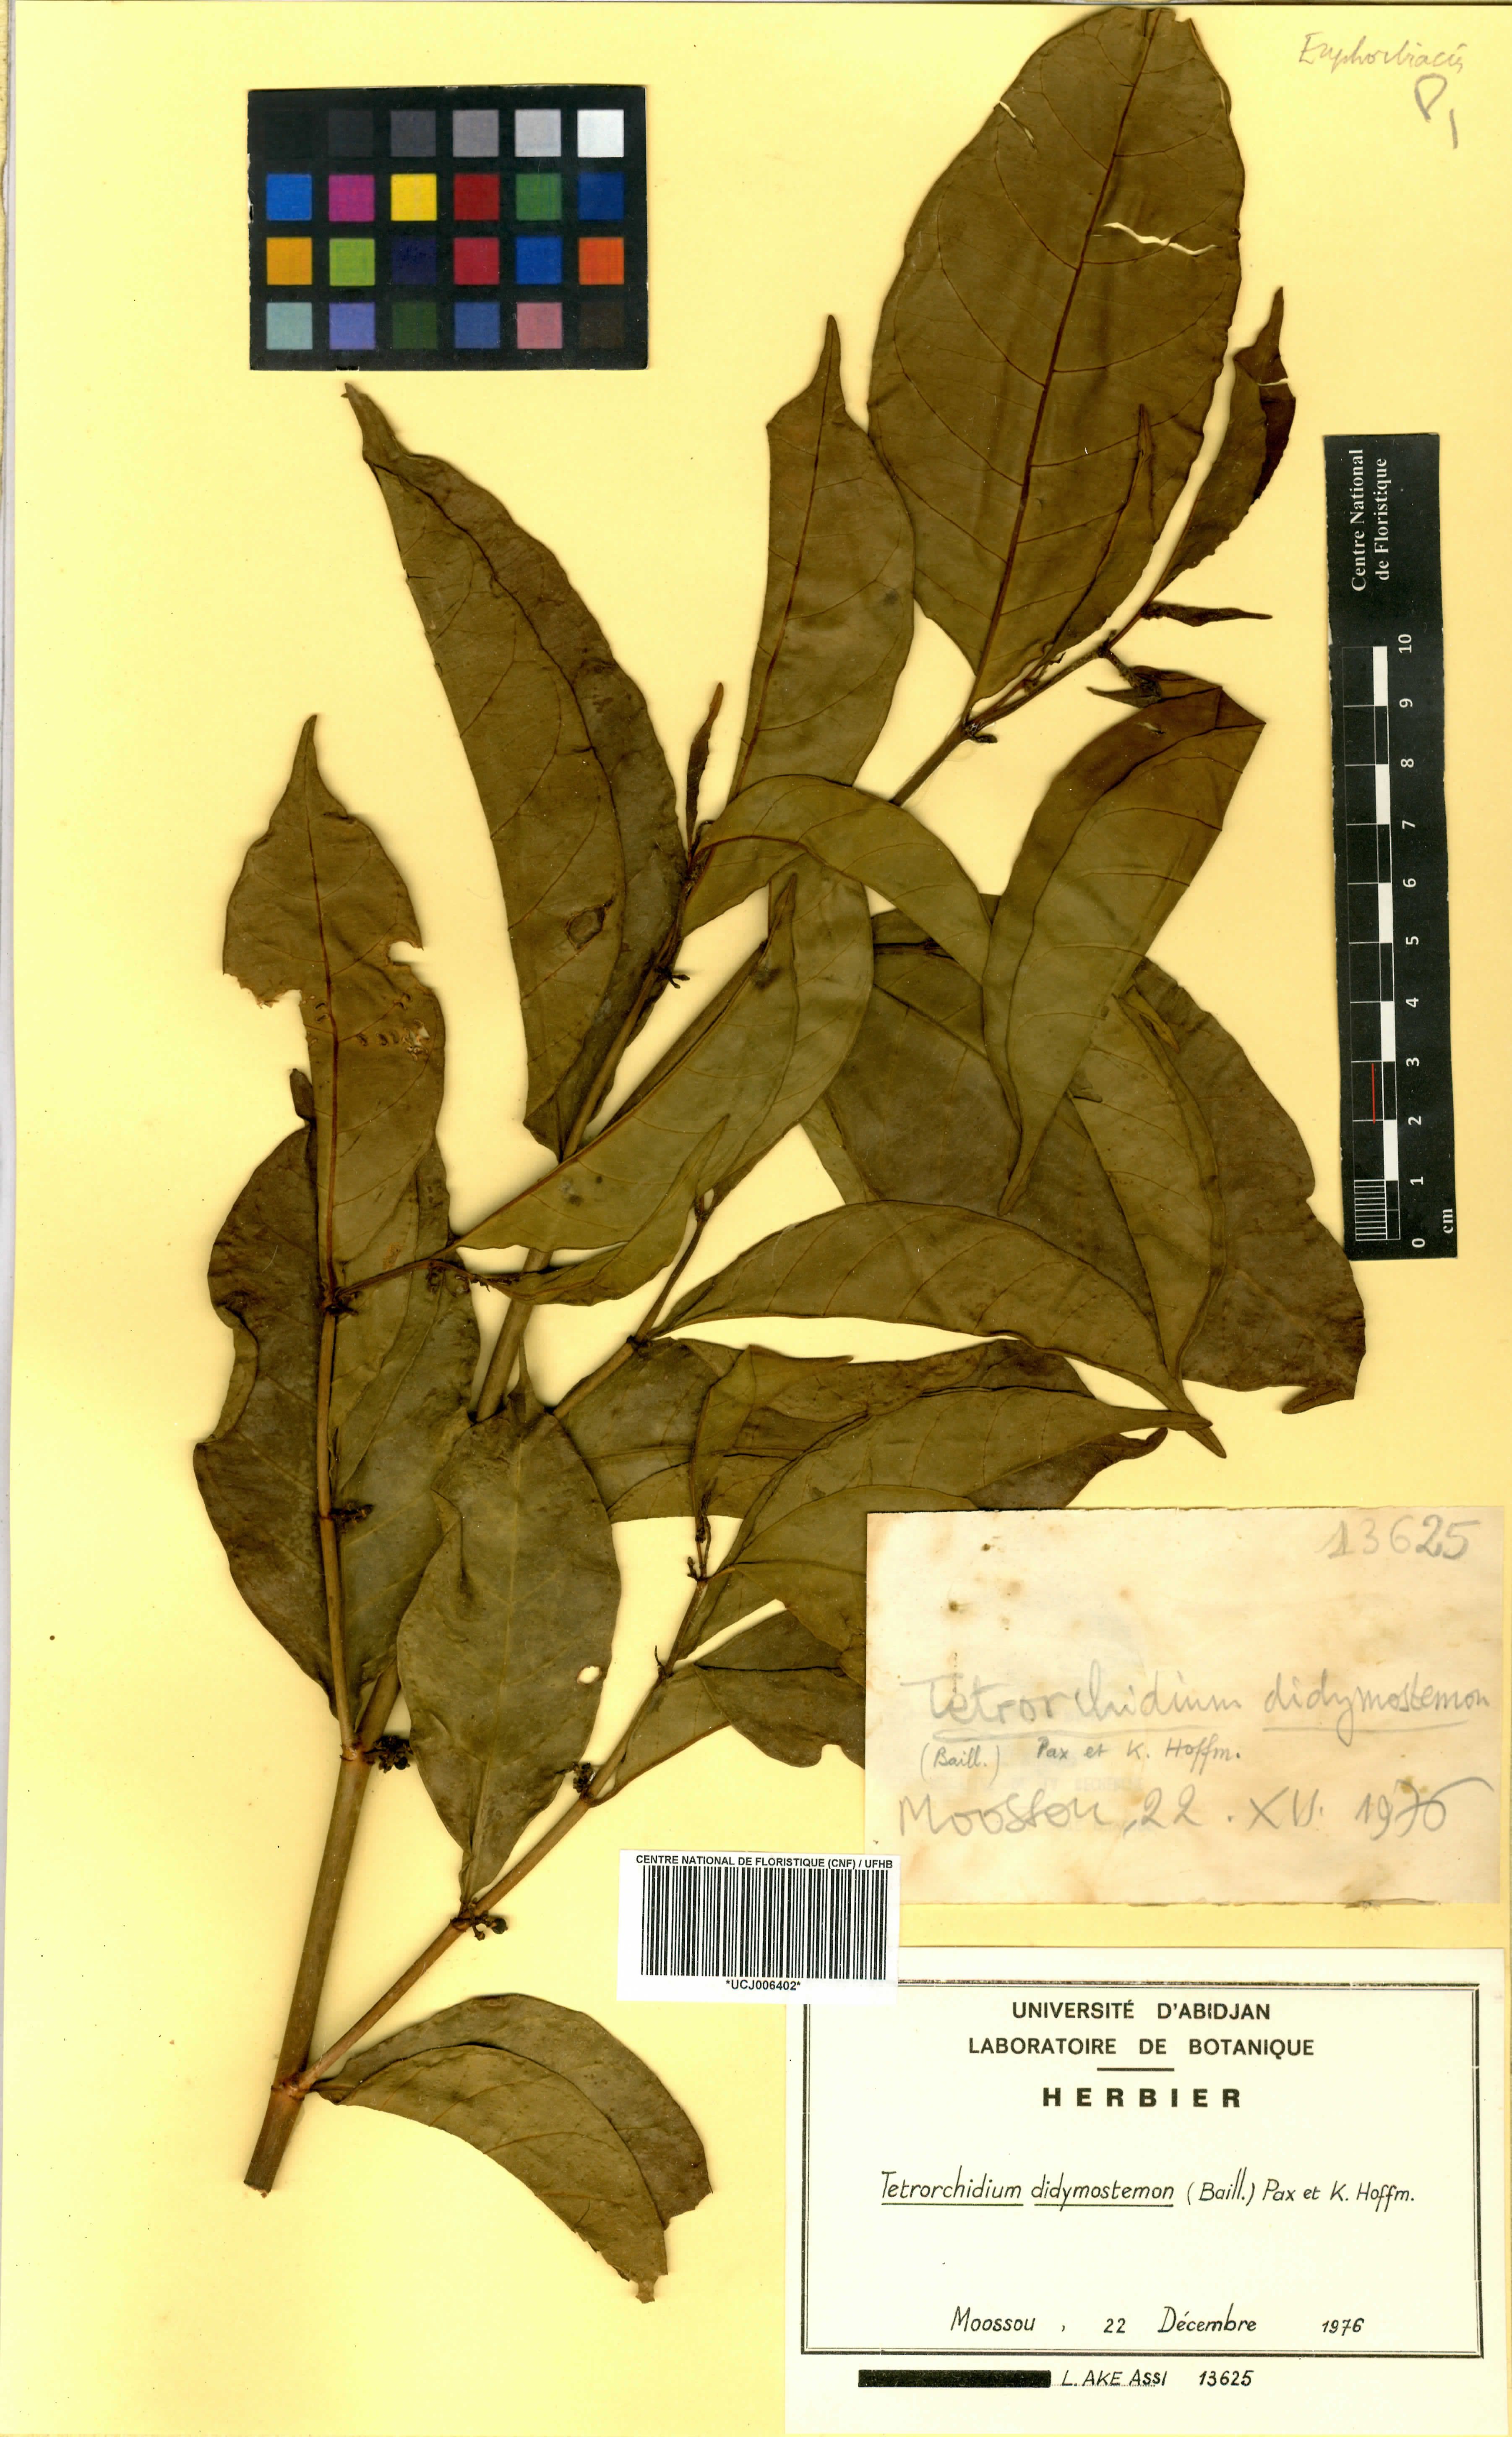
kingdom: Plantae
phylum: Tracheophyta
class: Magnoliopsida
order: Malpighiales
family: Euphorbiaceae
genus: Tetrorchidium
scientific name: Tetrorchidium didymostemon
